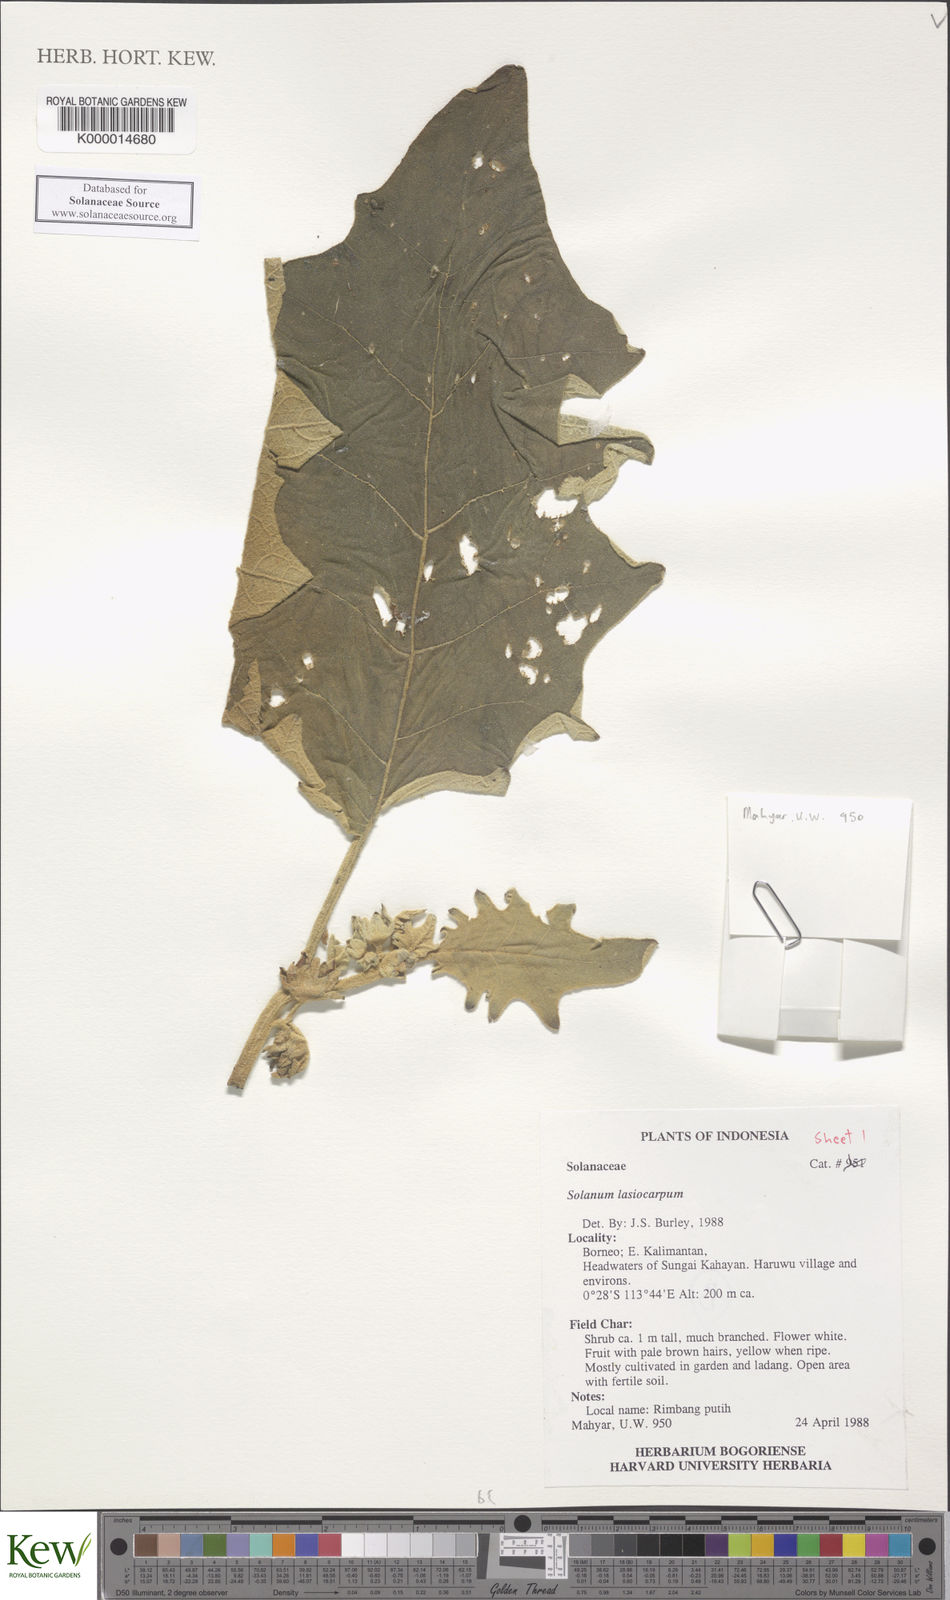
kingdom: Plantae
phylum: Tracheophyta
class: Magnoliopsida
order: Solanales
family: Solanaceae
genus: Solanum
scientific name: Solanum lasiocarpum
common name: Indian nightshade
